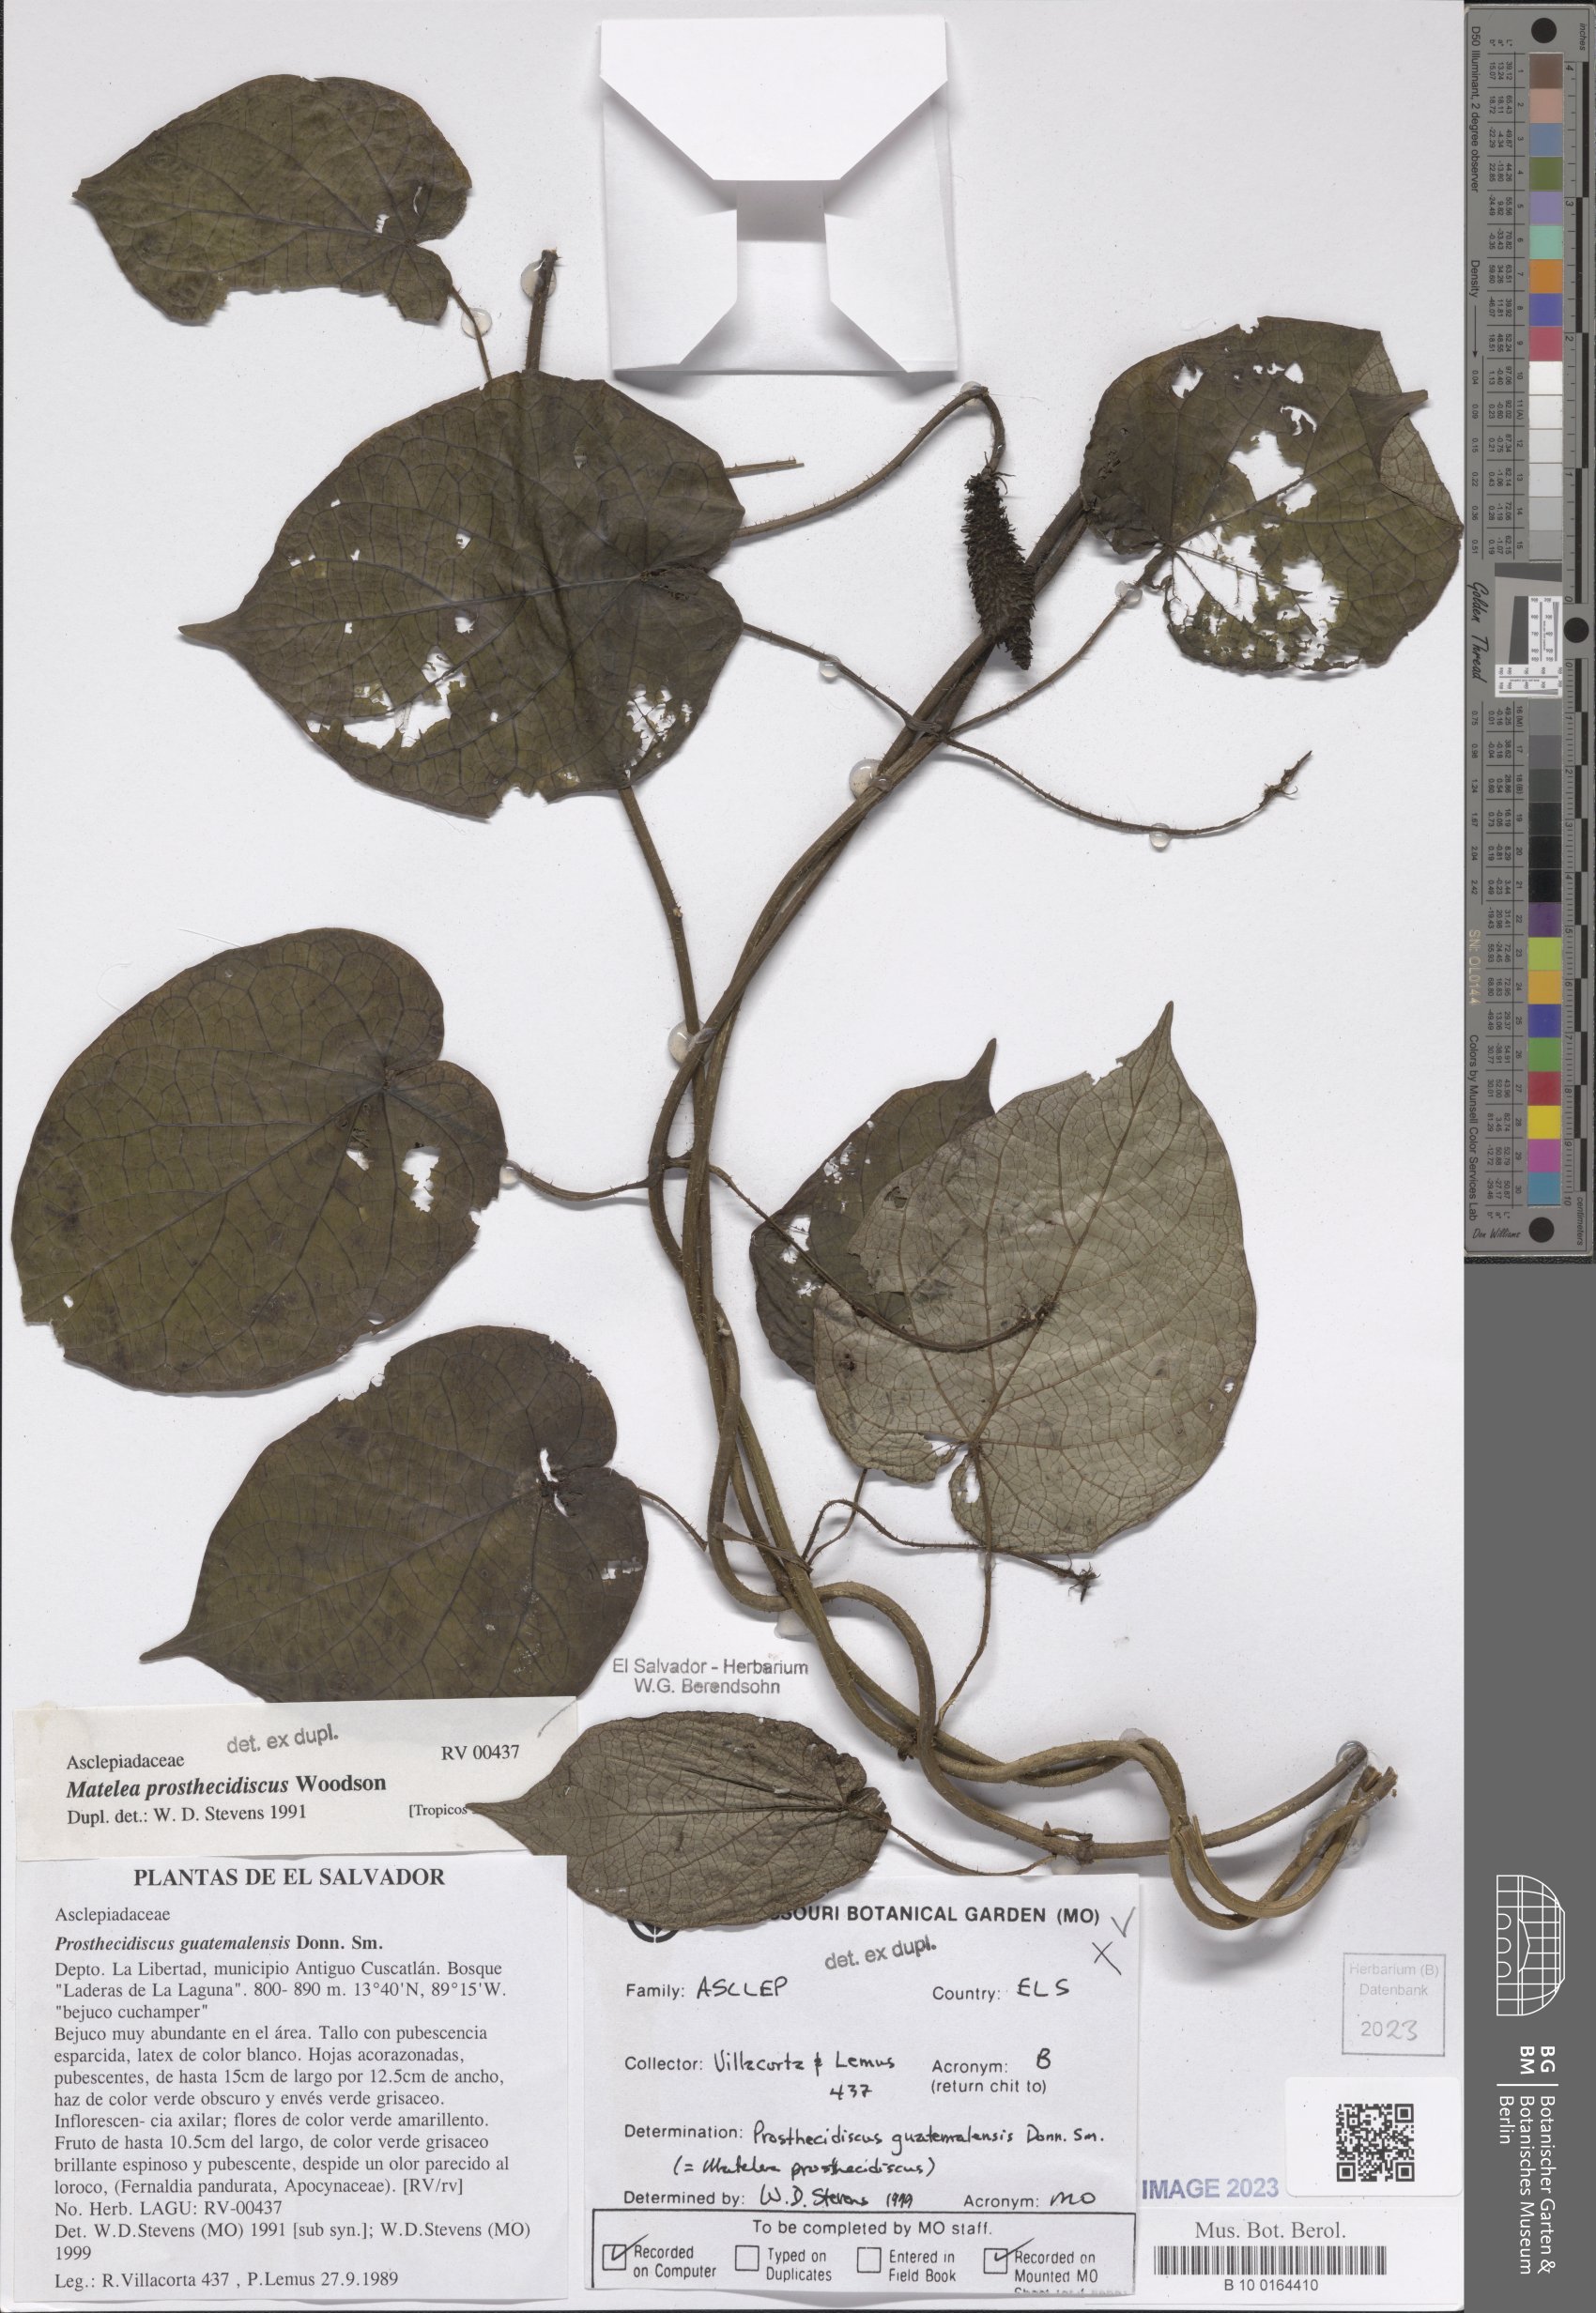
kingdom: Plantae
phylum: Tracheophyta
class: Magnoliopsida
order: Gentianales
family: Apocynaceae
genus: Matelea
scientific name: Matelea prosthecidiscus
